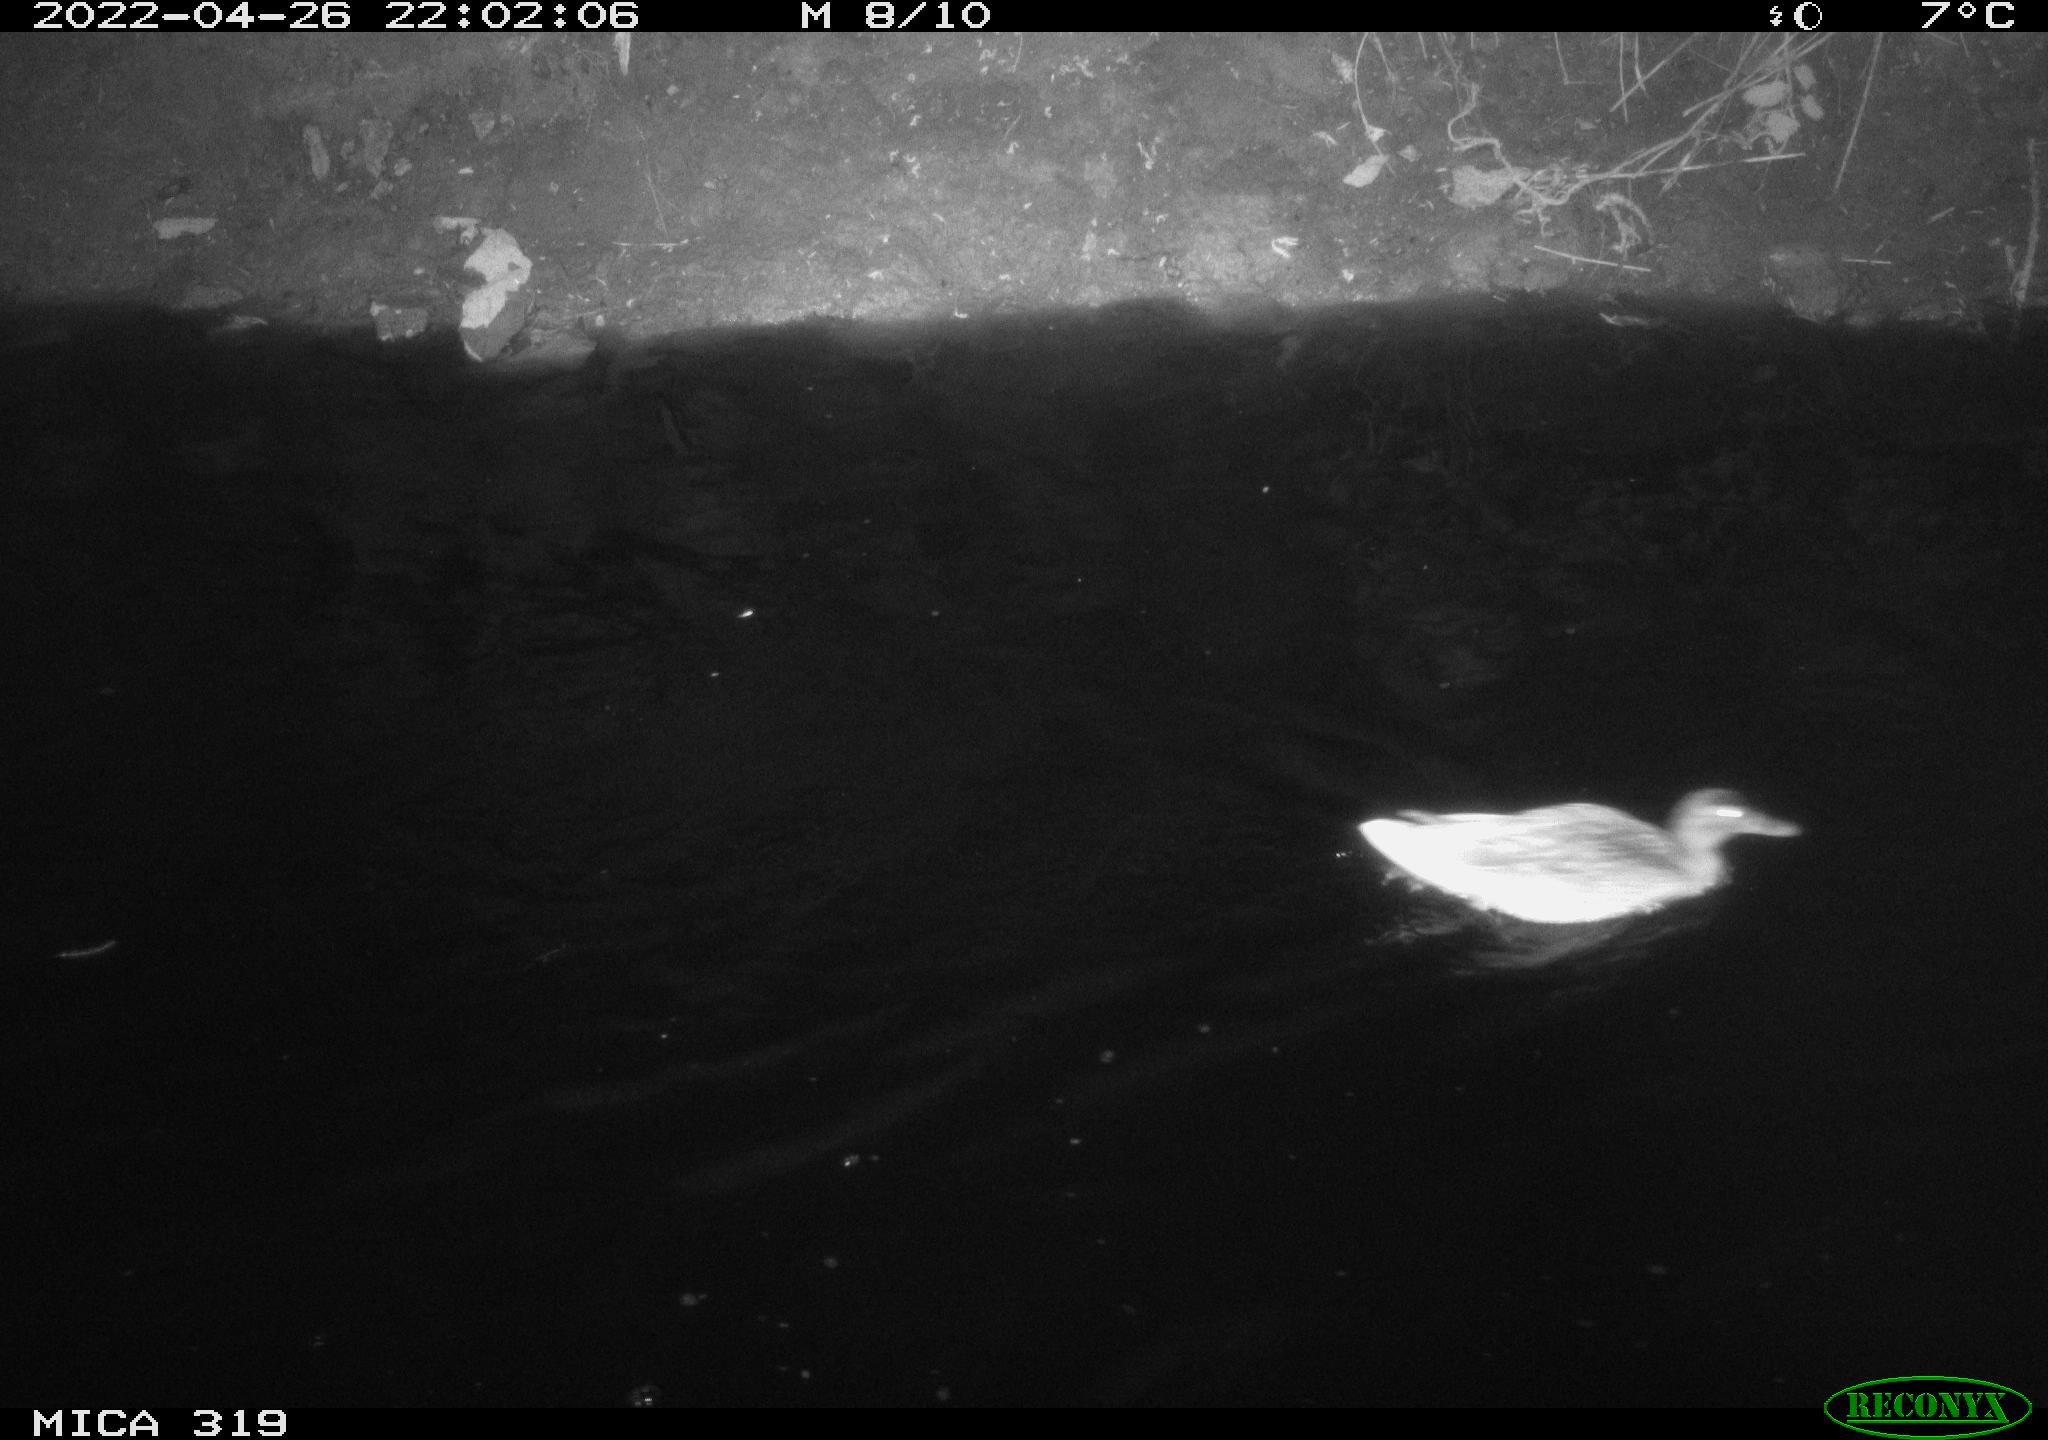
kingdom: Animalia
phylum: Chordata
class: Aves
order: Anseriformes
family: Anatidae
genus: Anas
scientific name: Anas platyrhynchos
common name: Mallard
